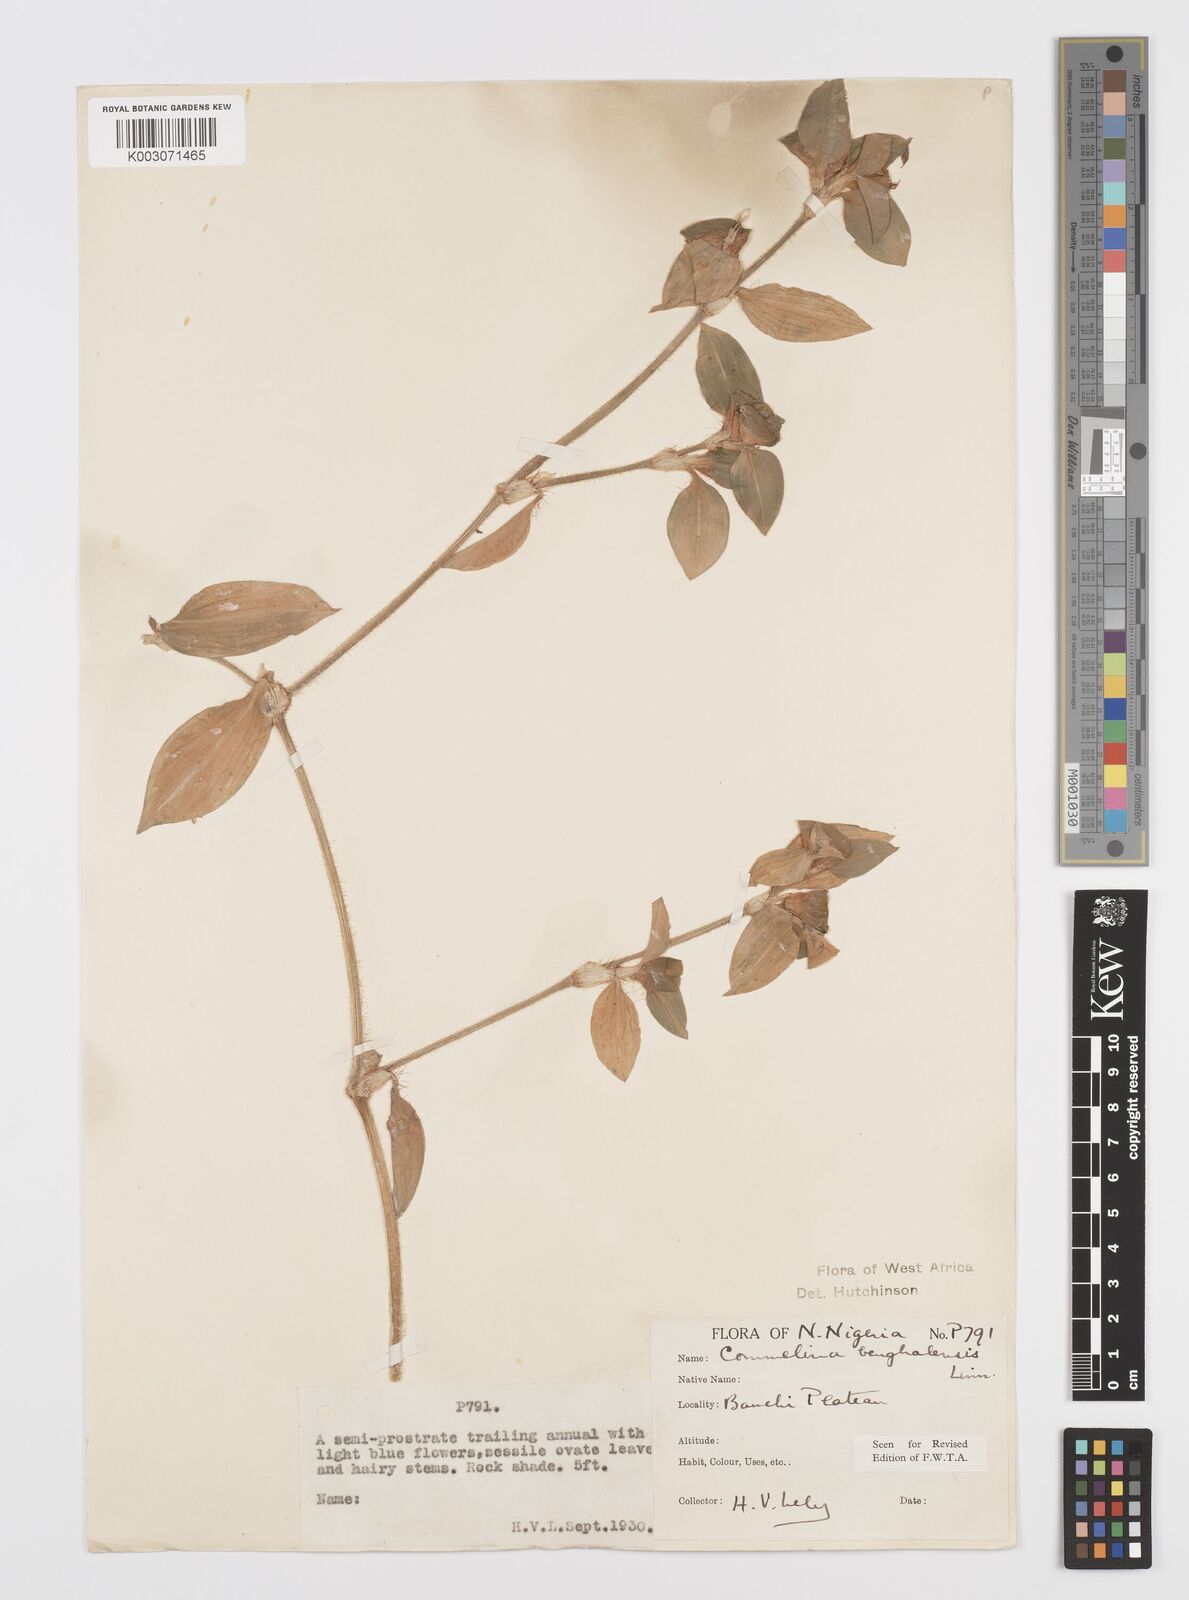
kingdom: Plantae
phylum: Tracheophyta
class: Liliopsida
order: Commelinales
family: Commelinaceae
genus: Commelina
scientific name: Commelina africana
